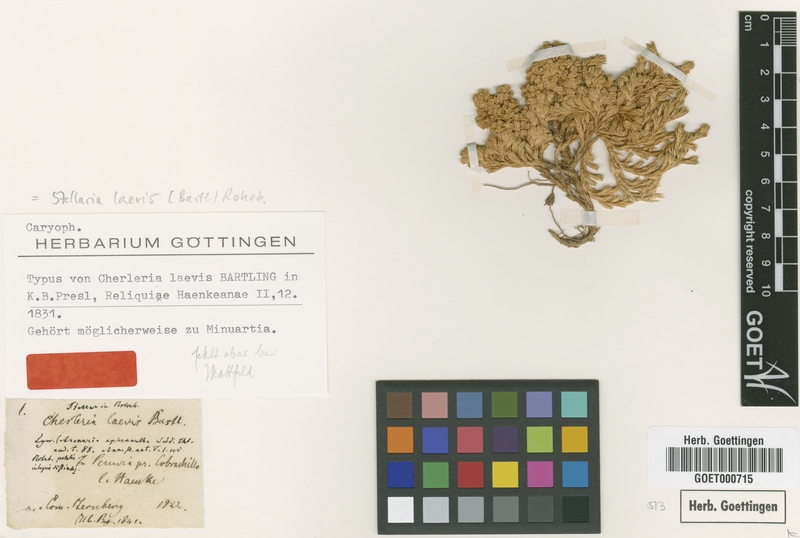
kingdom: Plantae
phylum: Tracheophyta
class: Magnoliopsida
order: Caryophyllales
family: Caryophyllaceae
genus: Pycnophyllopsis
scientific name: Pycnophyllopsis laevis
